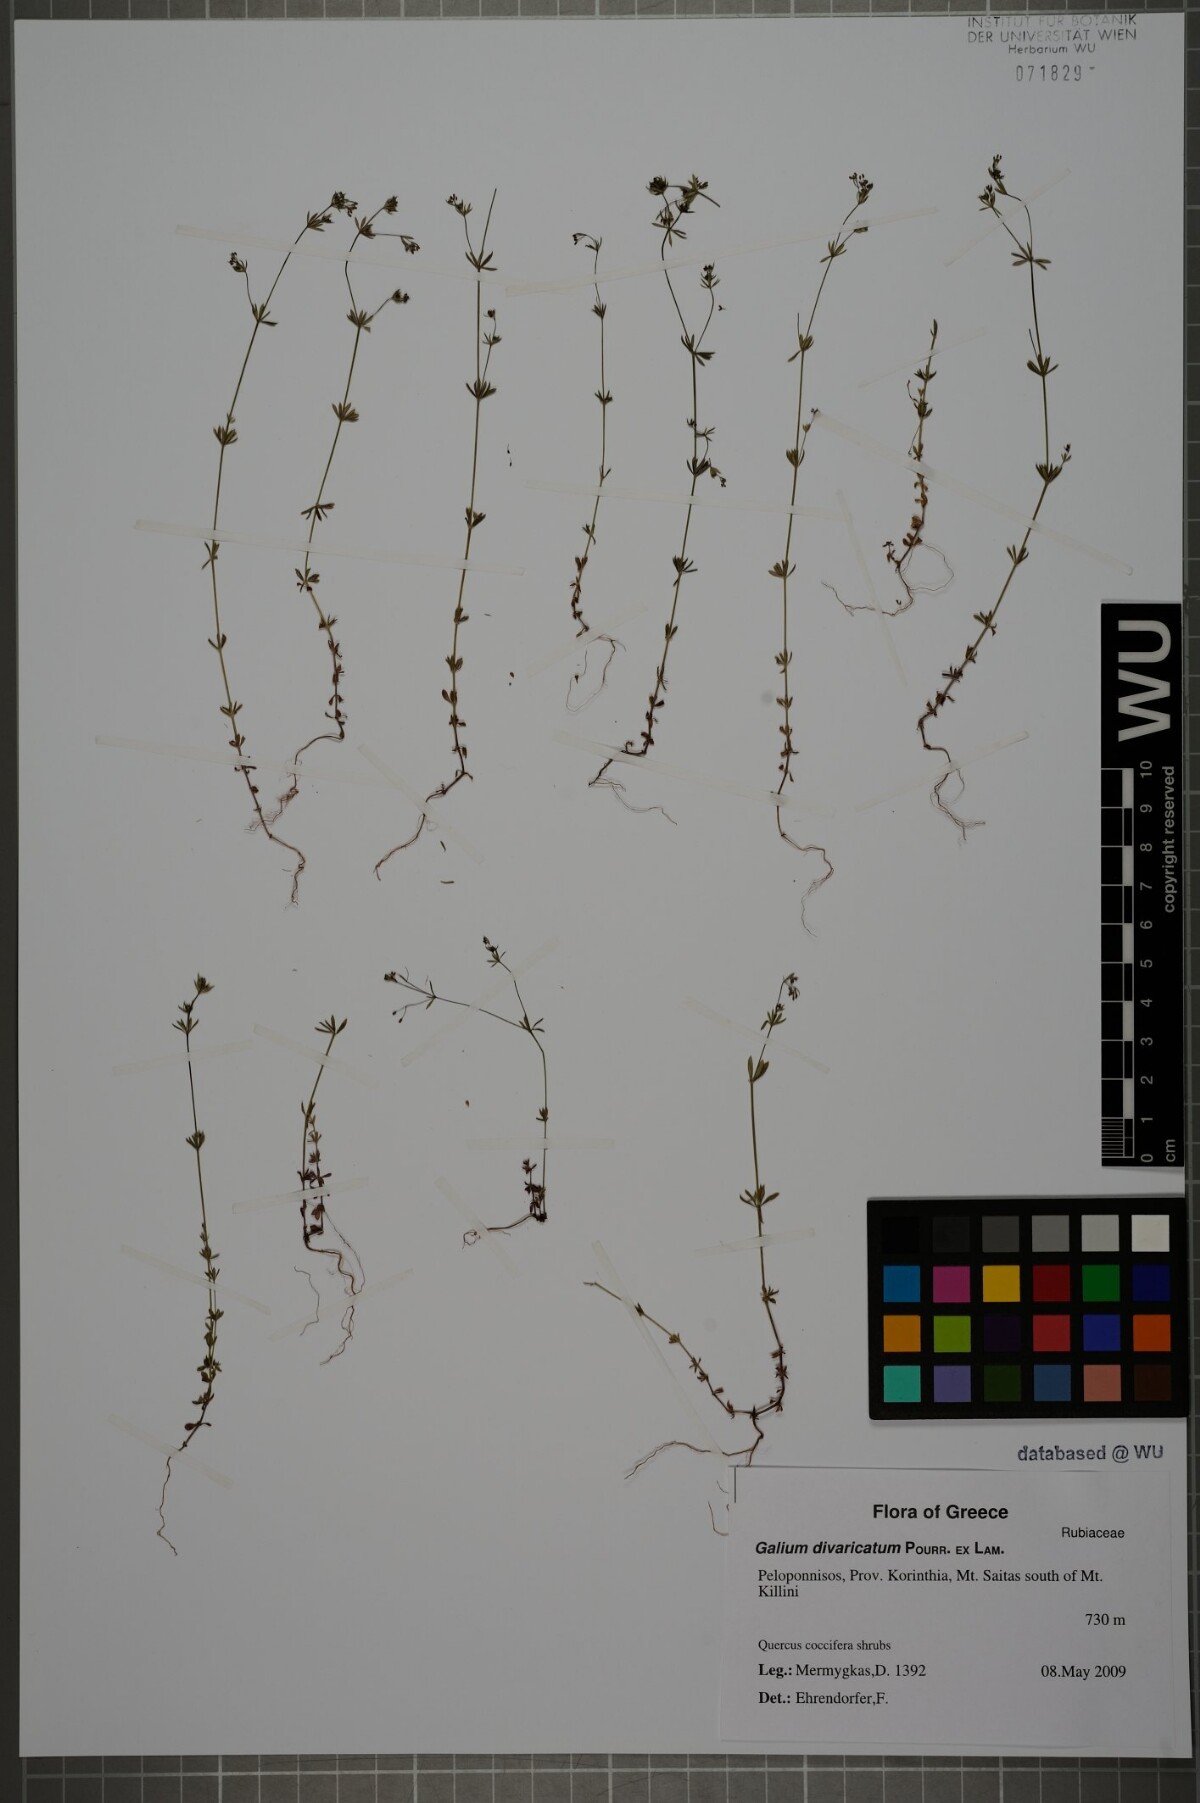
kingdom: Plantae
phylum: Tracheophyta
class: Magnoliopsida
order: Gentianales
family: Rubiaceae
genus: Galium
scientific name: Galium divaricatum
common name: Lamarck's bedstraw
